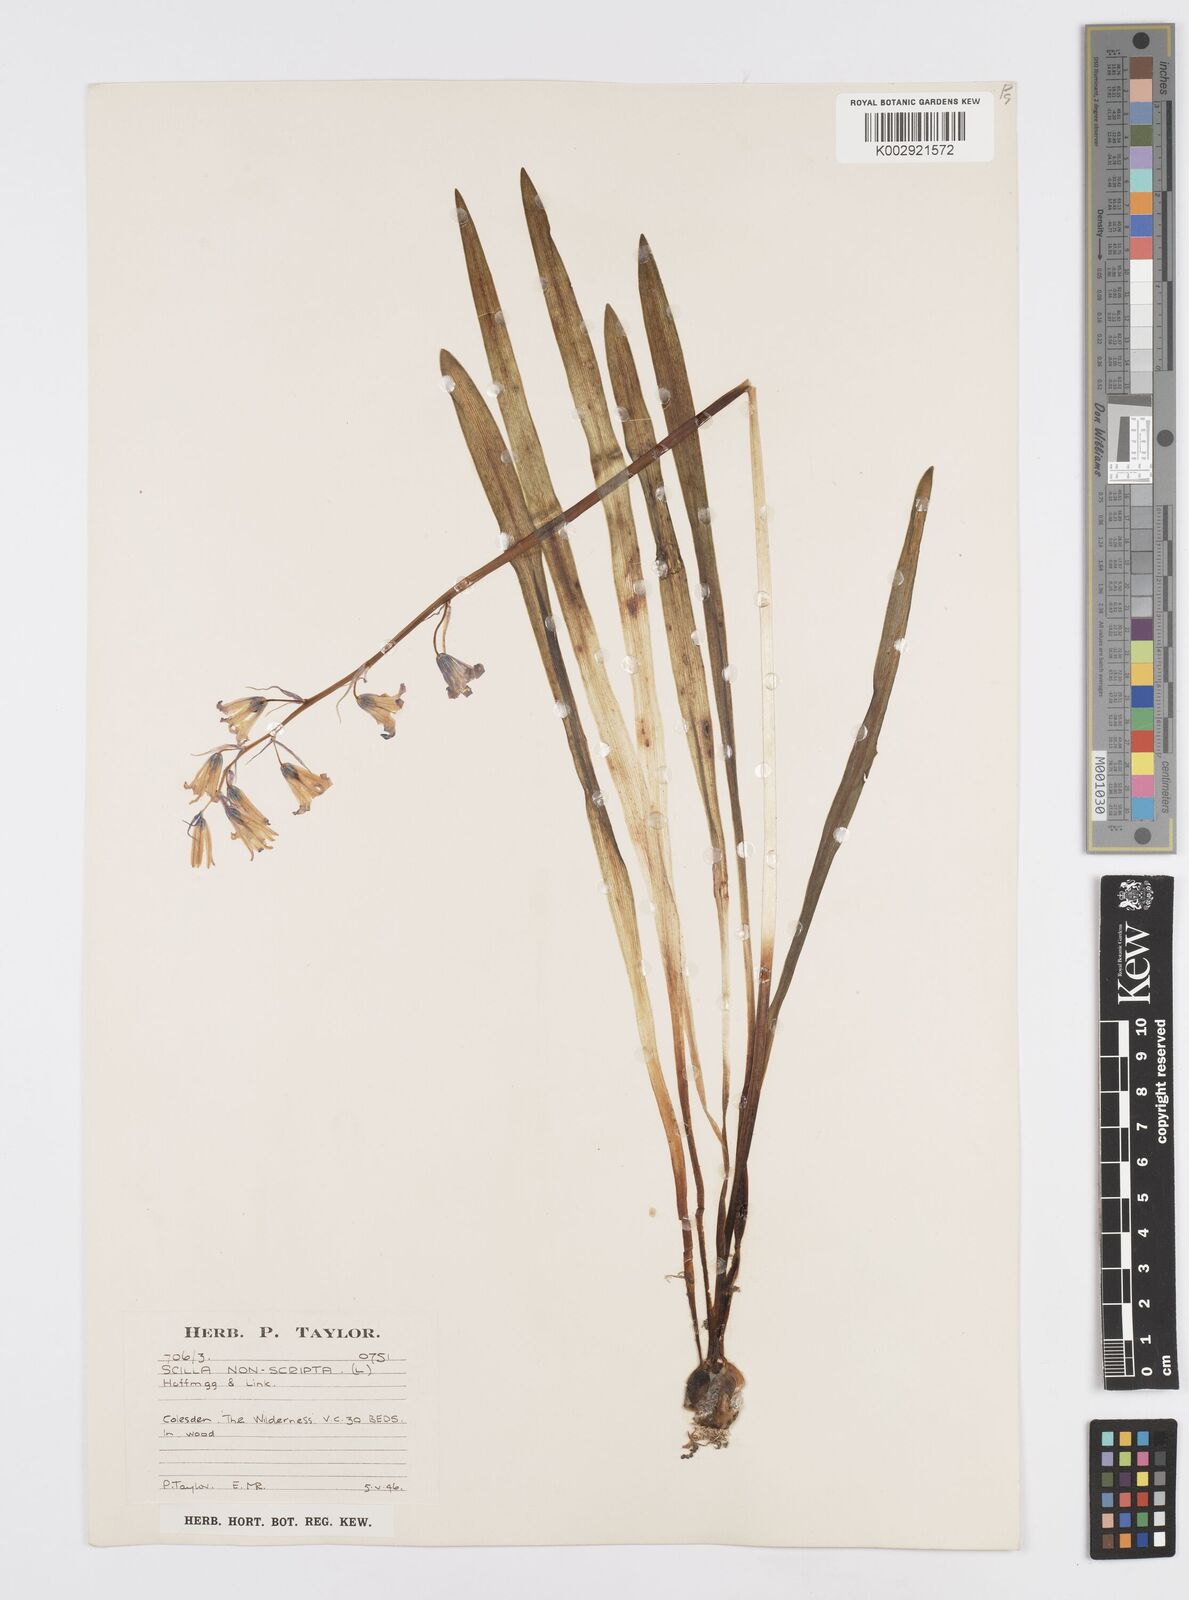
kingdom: Plantae
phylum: Tracheophyta
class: Liliopsida
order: Asparagales
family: Asparagaceae
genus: Hyacinthoides
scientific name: Hyacinthoides non-scripta
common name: Bluebell
